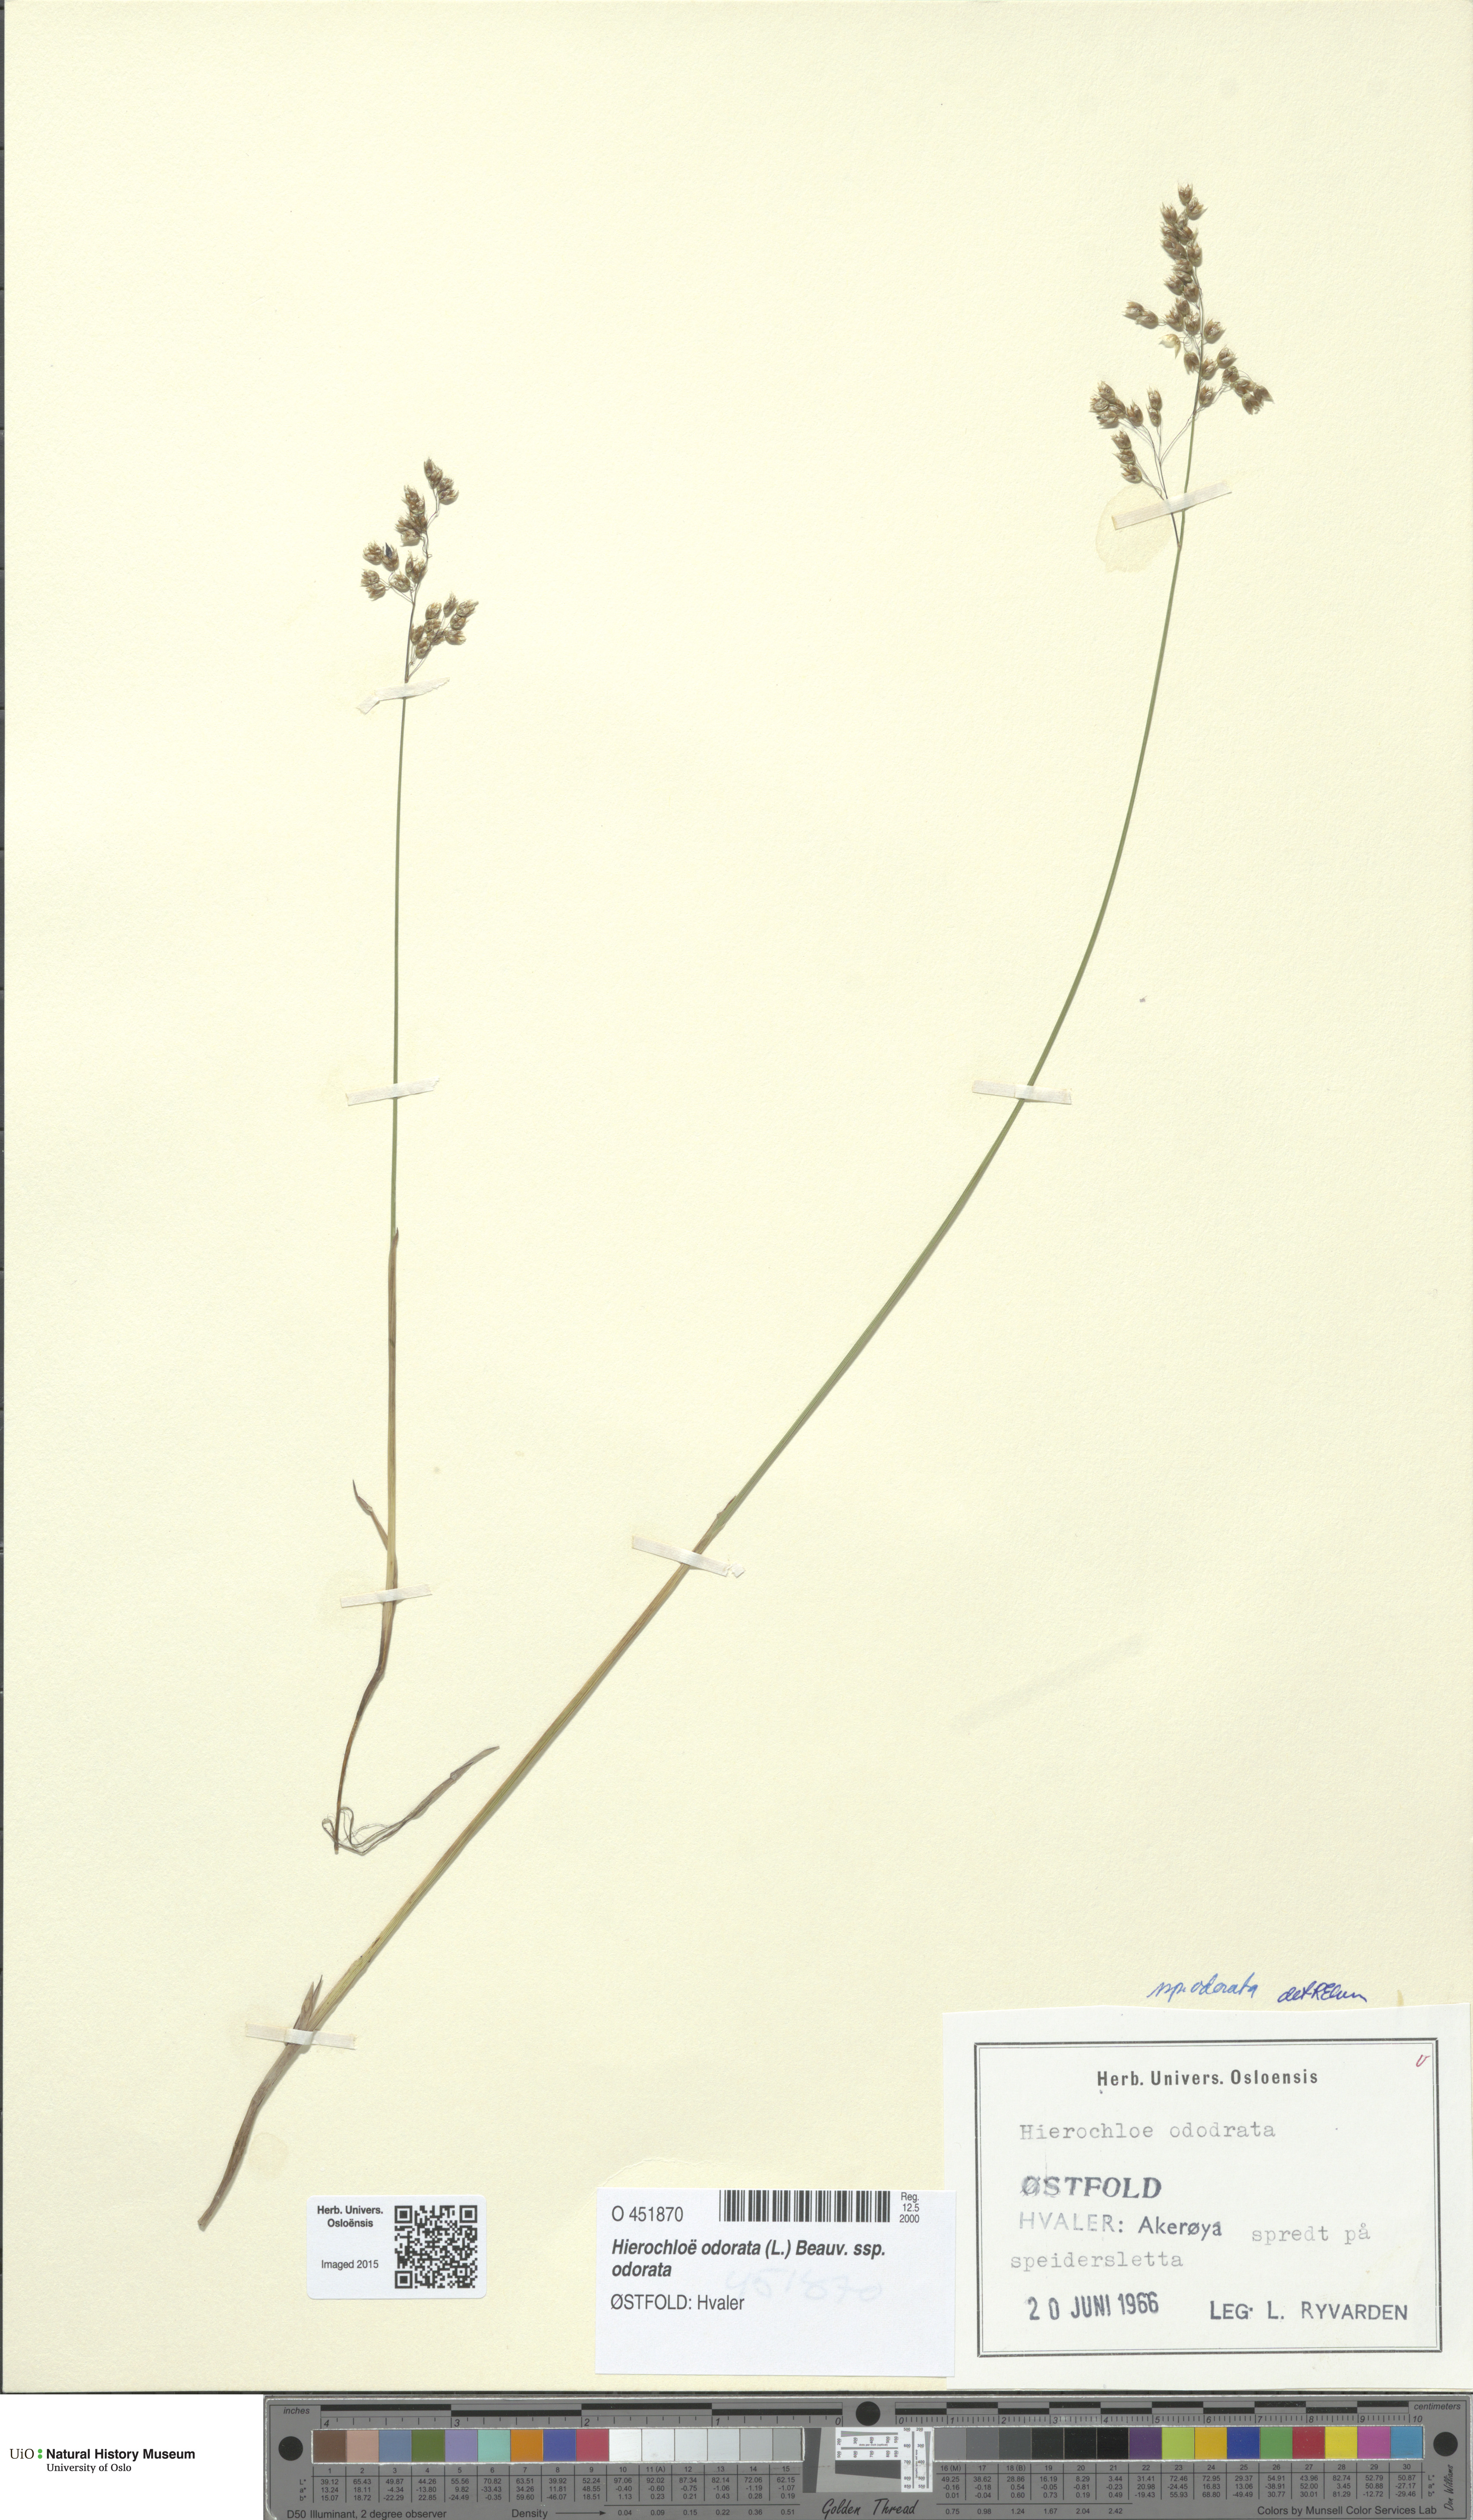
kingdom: Plantae
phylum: Tracheophyta
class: Liliopsida
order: Poales
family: Poaceae
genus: Anthoxanthum
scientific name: Anthoxanthum nitens
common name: Holy grass
